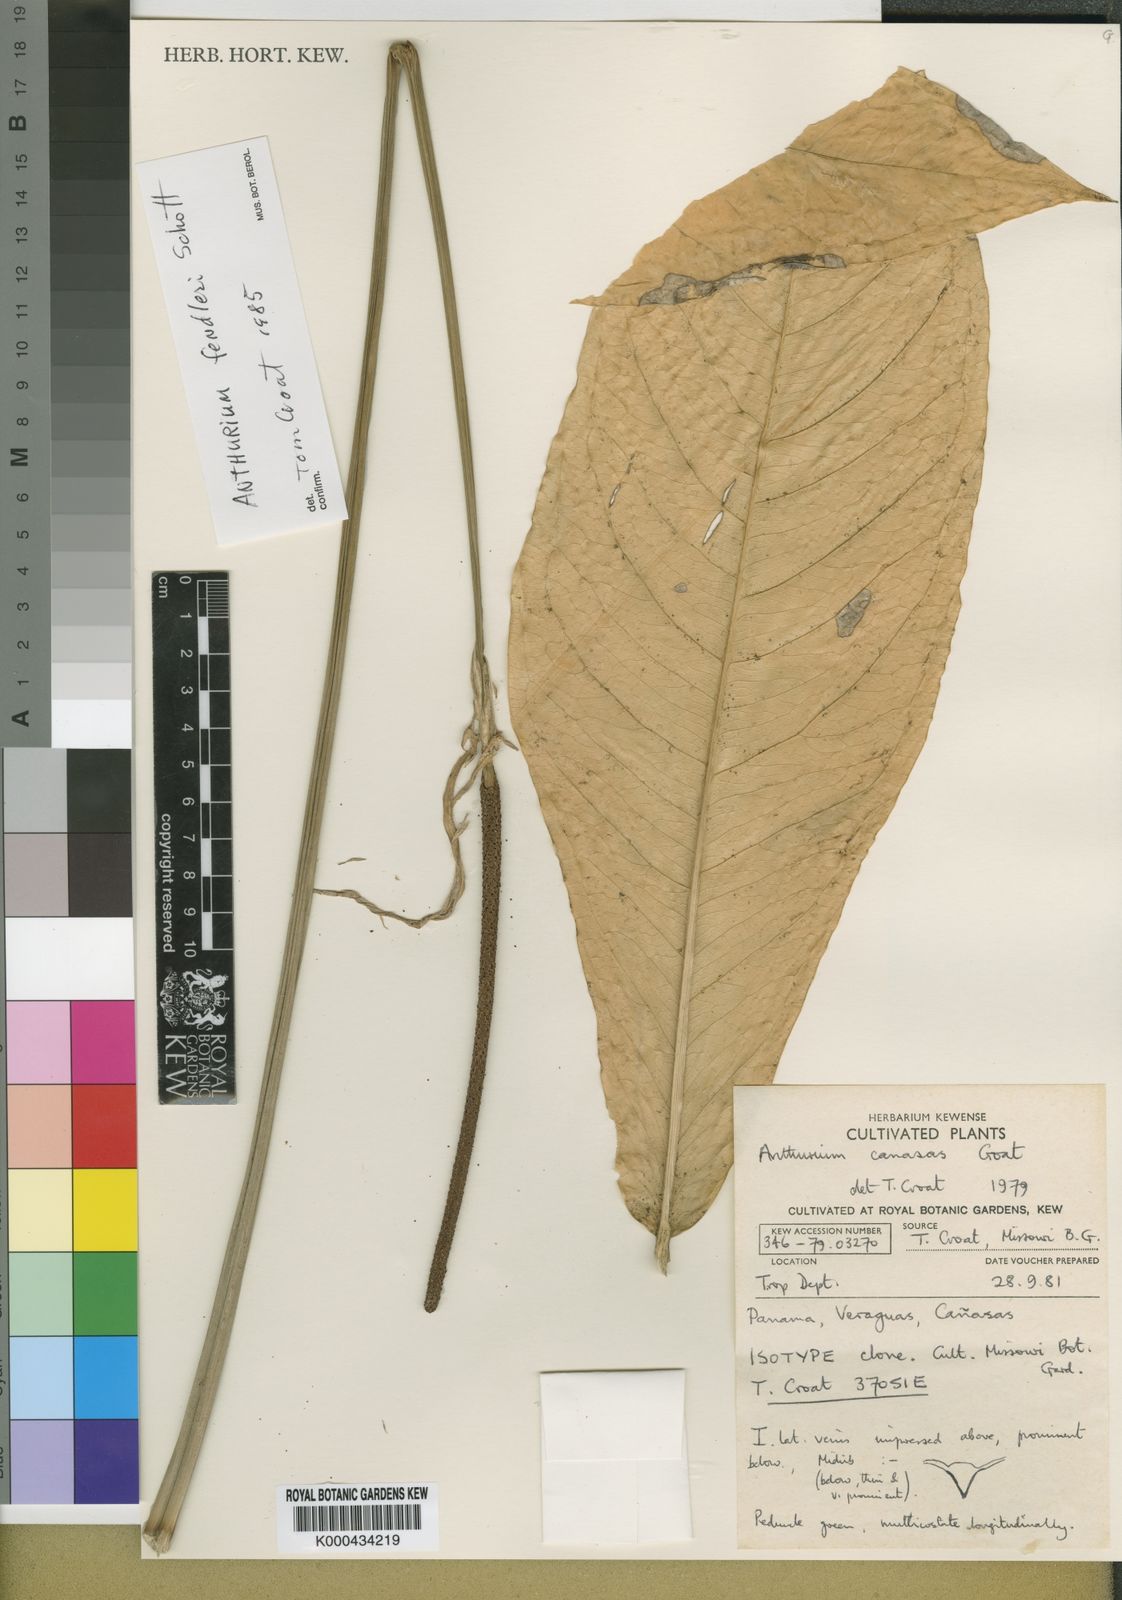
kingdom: Plantae
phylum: Tracheophyta
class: Liliopsida
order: Alismatales
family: Araceae
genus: Anthurium
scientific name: Anthurium fendleri
